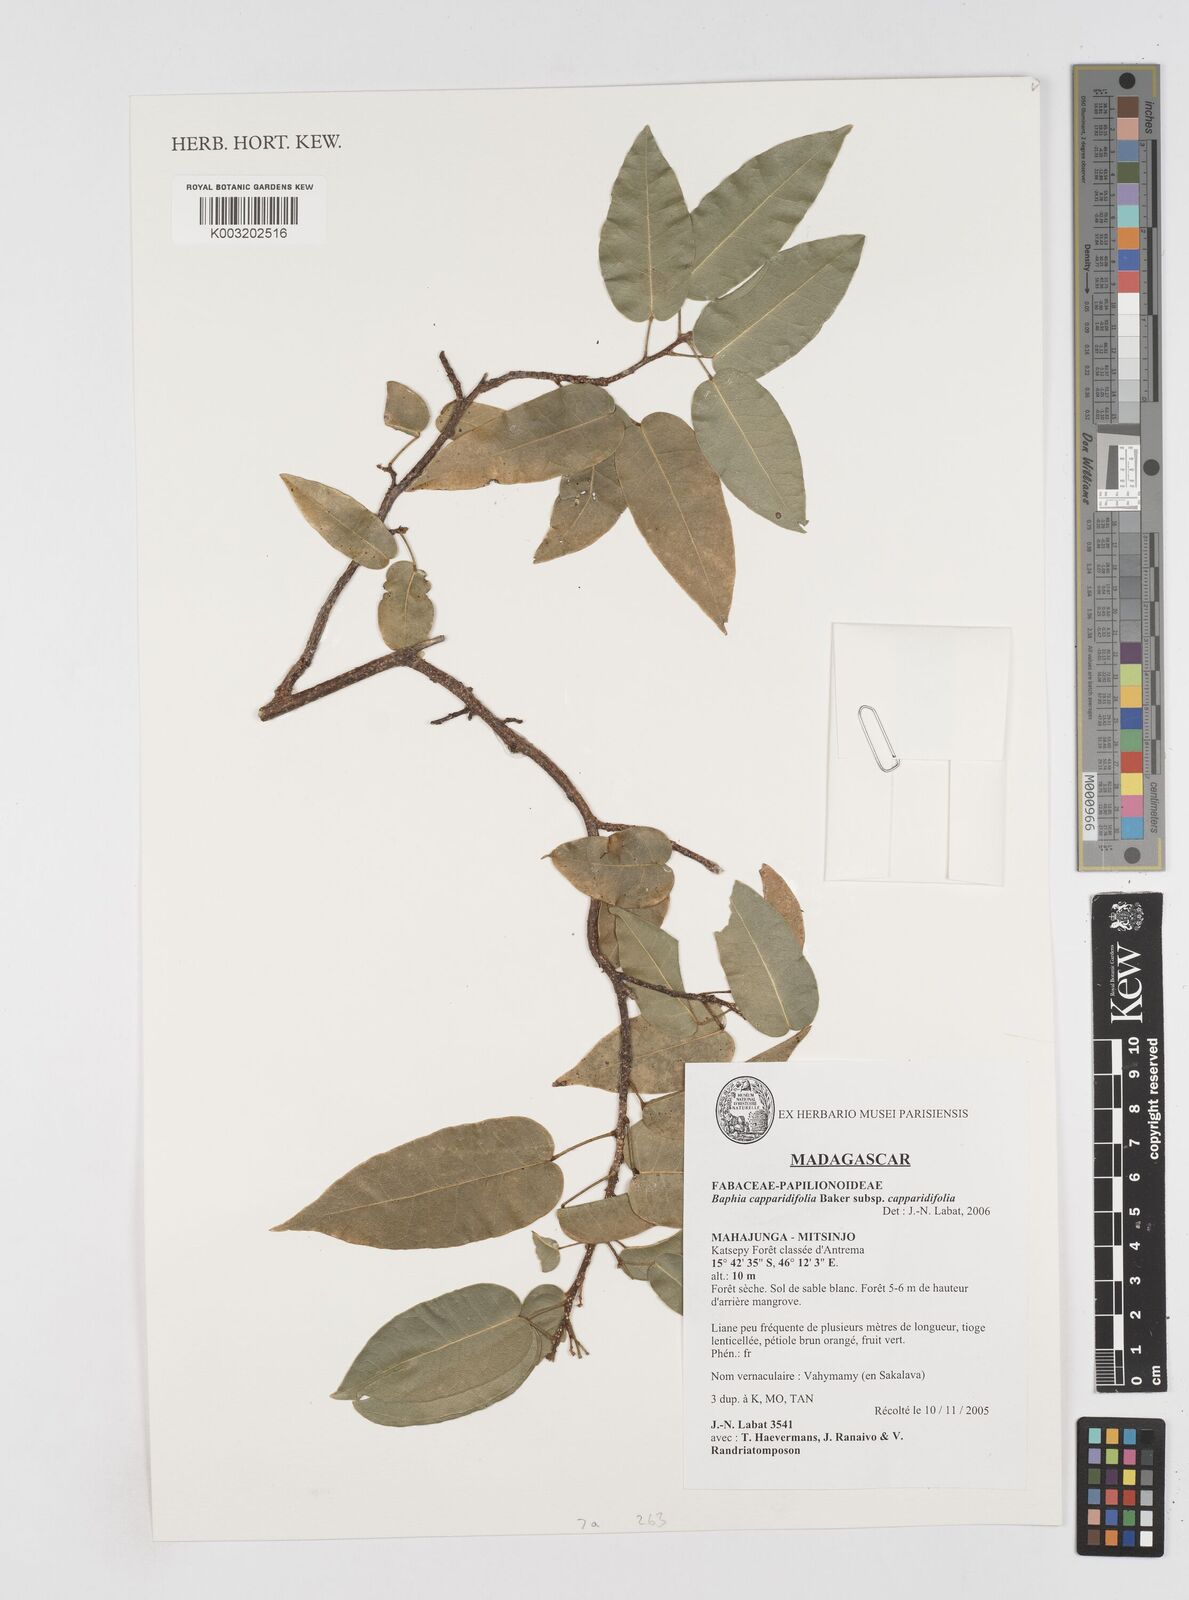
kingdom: Plantae
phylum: Tracheophyta
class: Magnoliopsida
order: Fabales
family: Fabaceae
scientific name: Fabaceae
